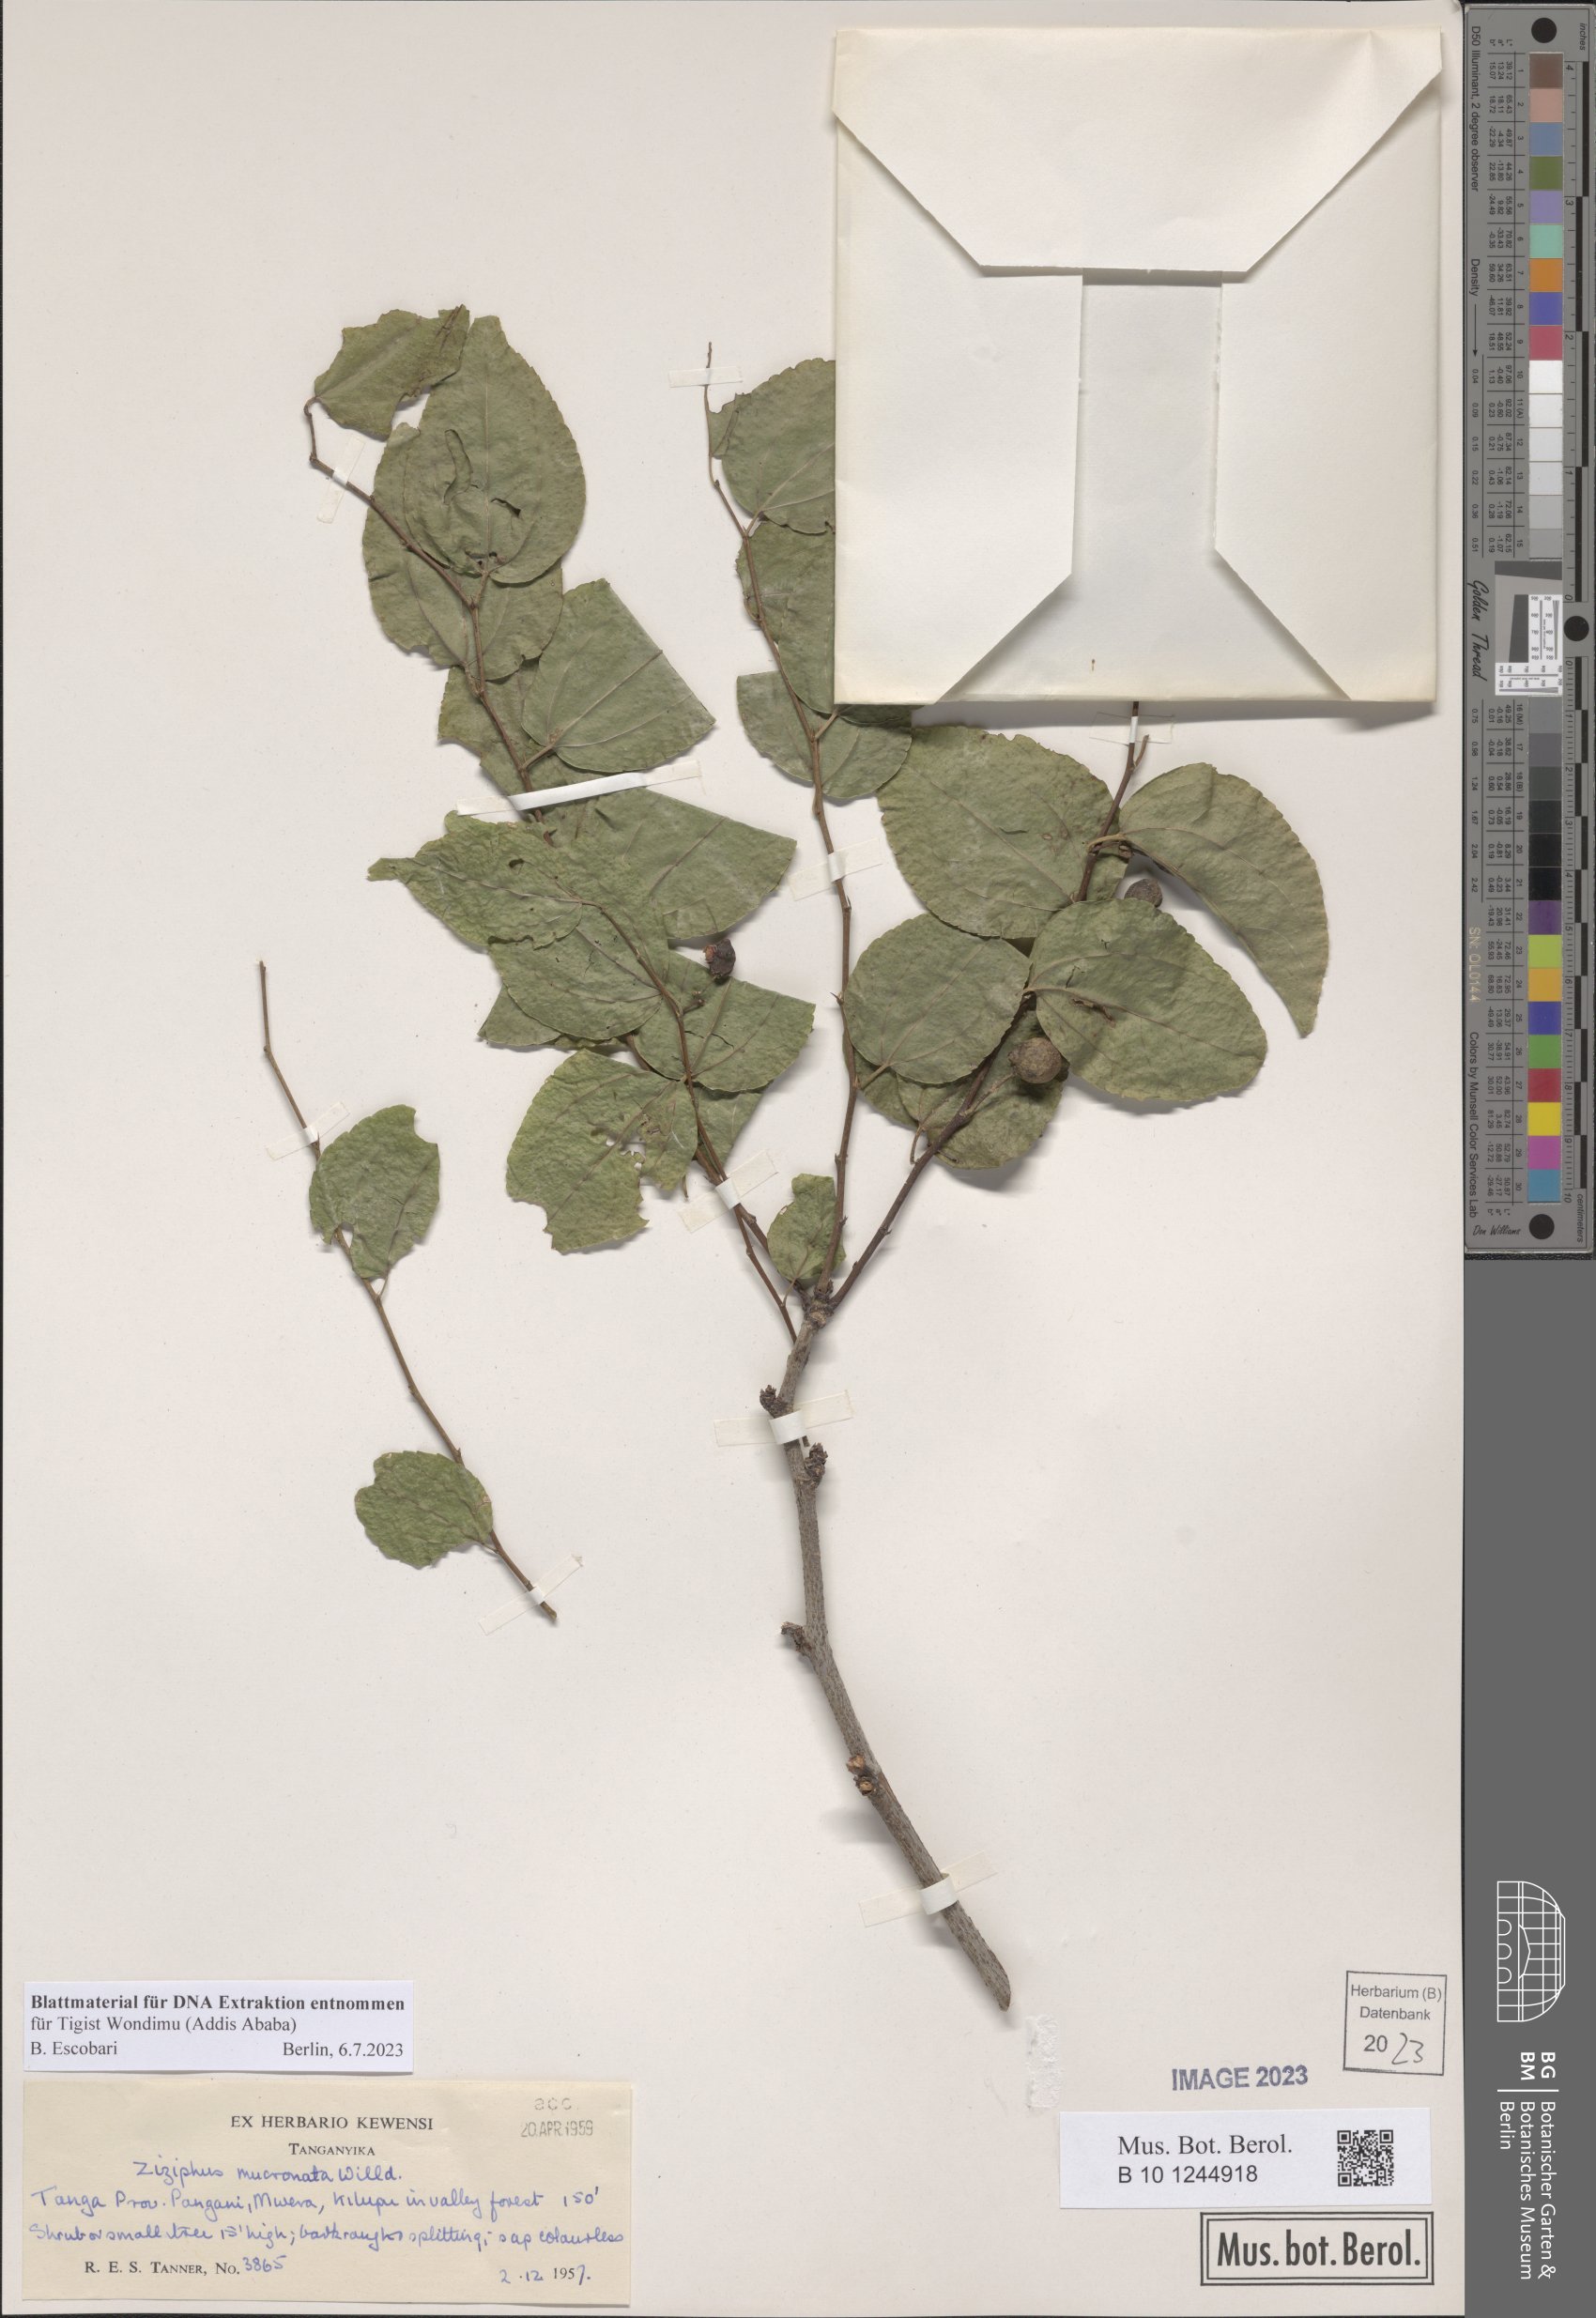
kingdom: Plantae
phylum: Tracheophyta
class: Magnoliopsida
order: Rosales
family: Rhamnaceae
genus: Ziziphus
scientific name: Ziziphus mucronata
